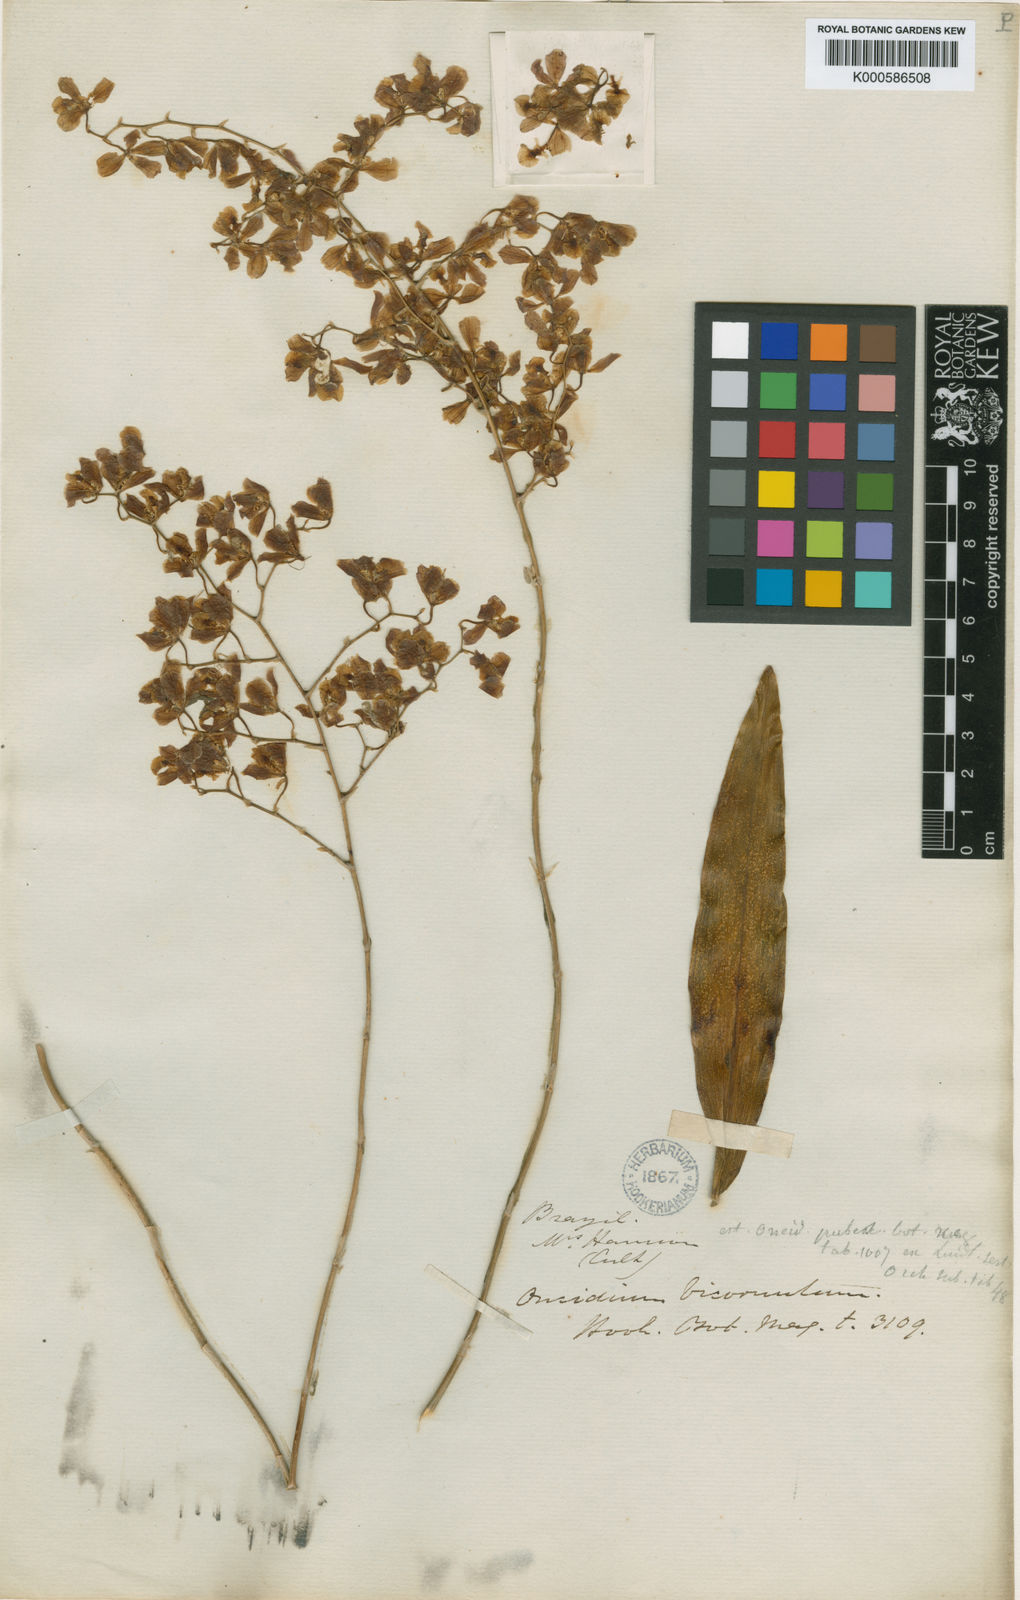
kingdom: Plantae
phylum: Tracheophyta
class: Liliopsida
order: Asparagales
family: Orchidaceae
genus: Gomesa
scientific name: Gomesa pubes
